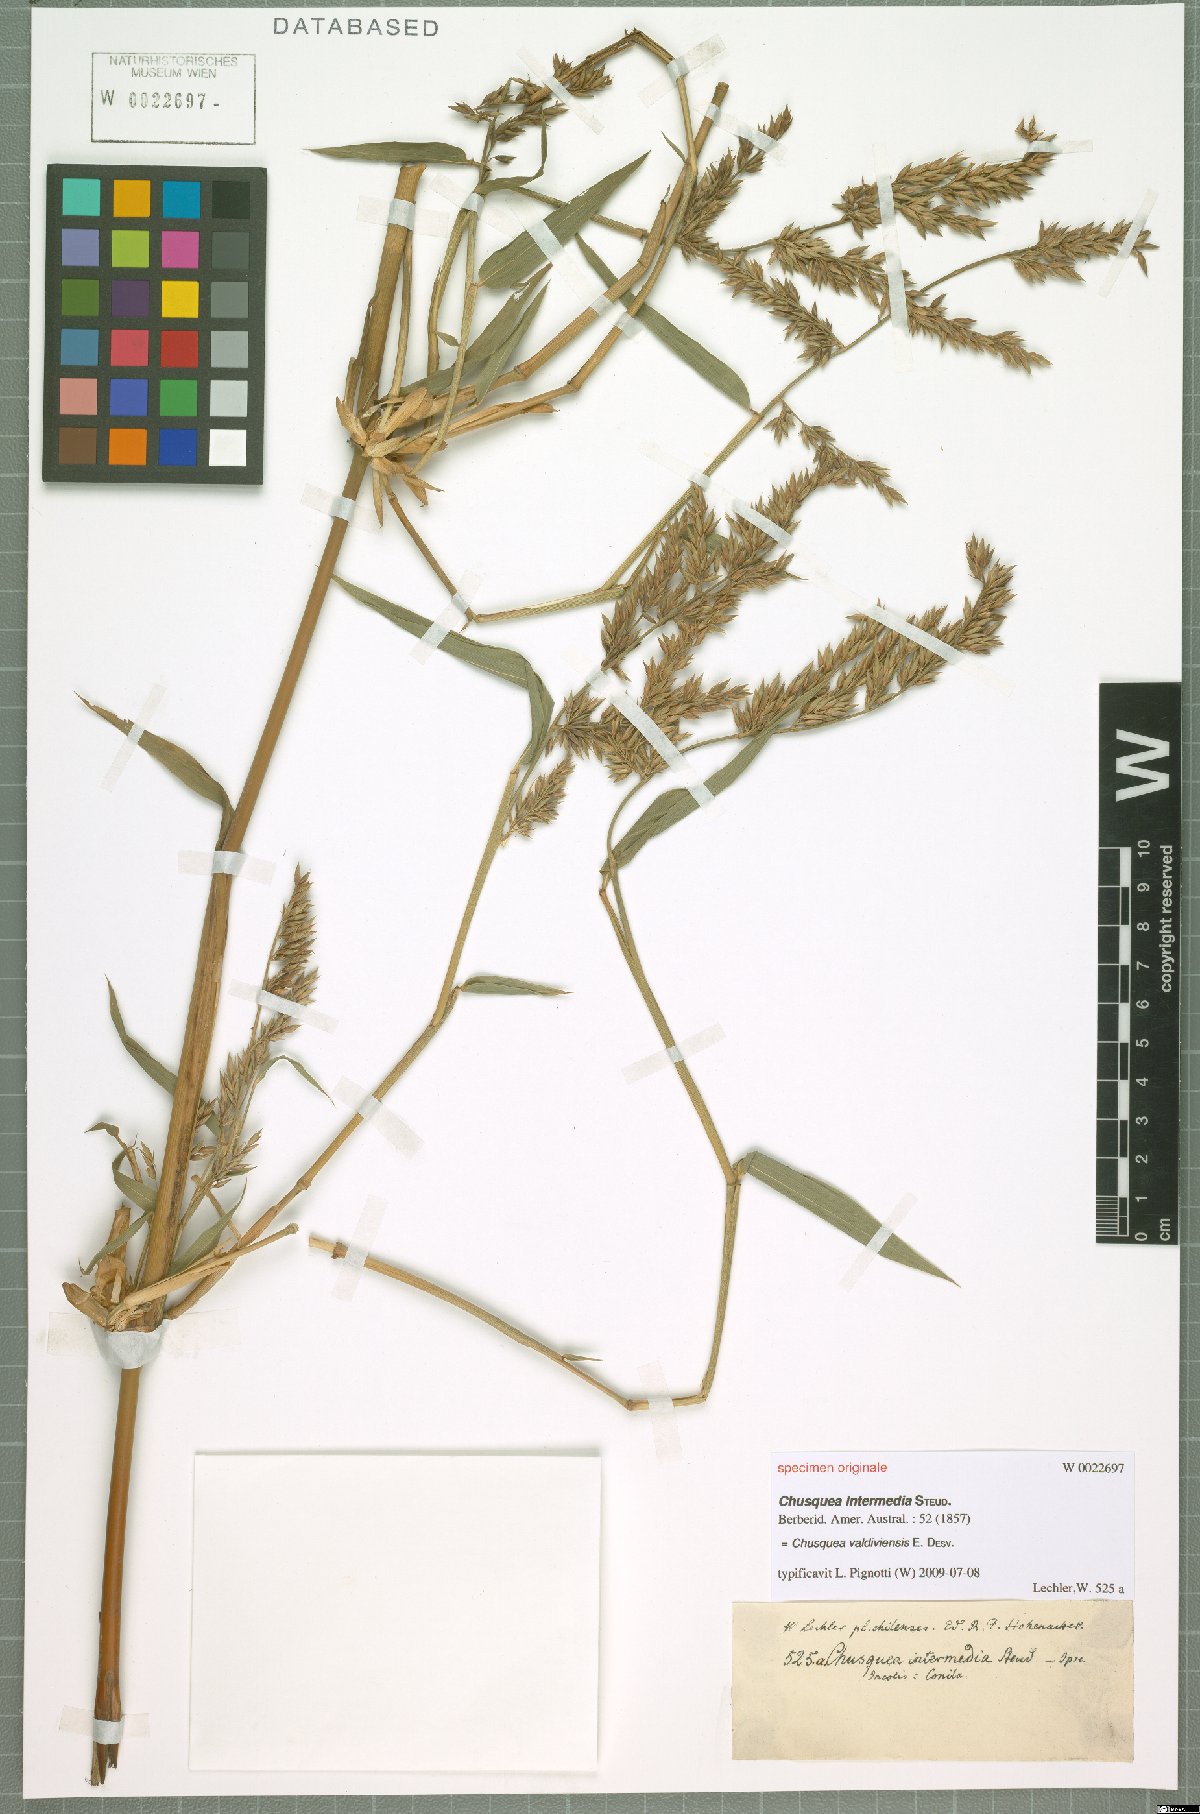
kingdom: Plantae
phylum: Tracheophyta
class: Liliopsida
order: Poales
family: Poaceae
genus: Chusquea
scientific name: Chusquea valdiviensis
